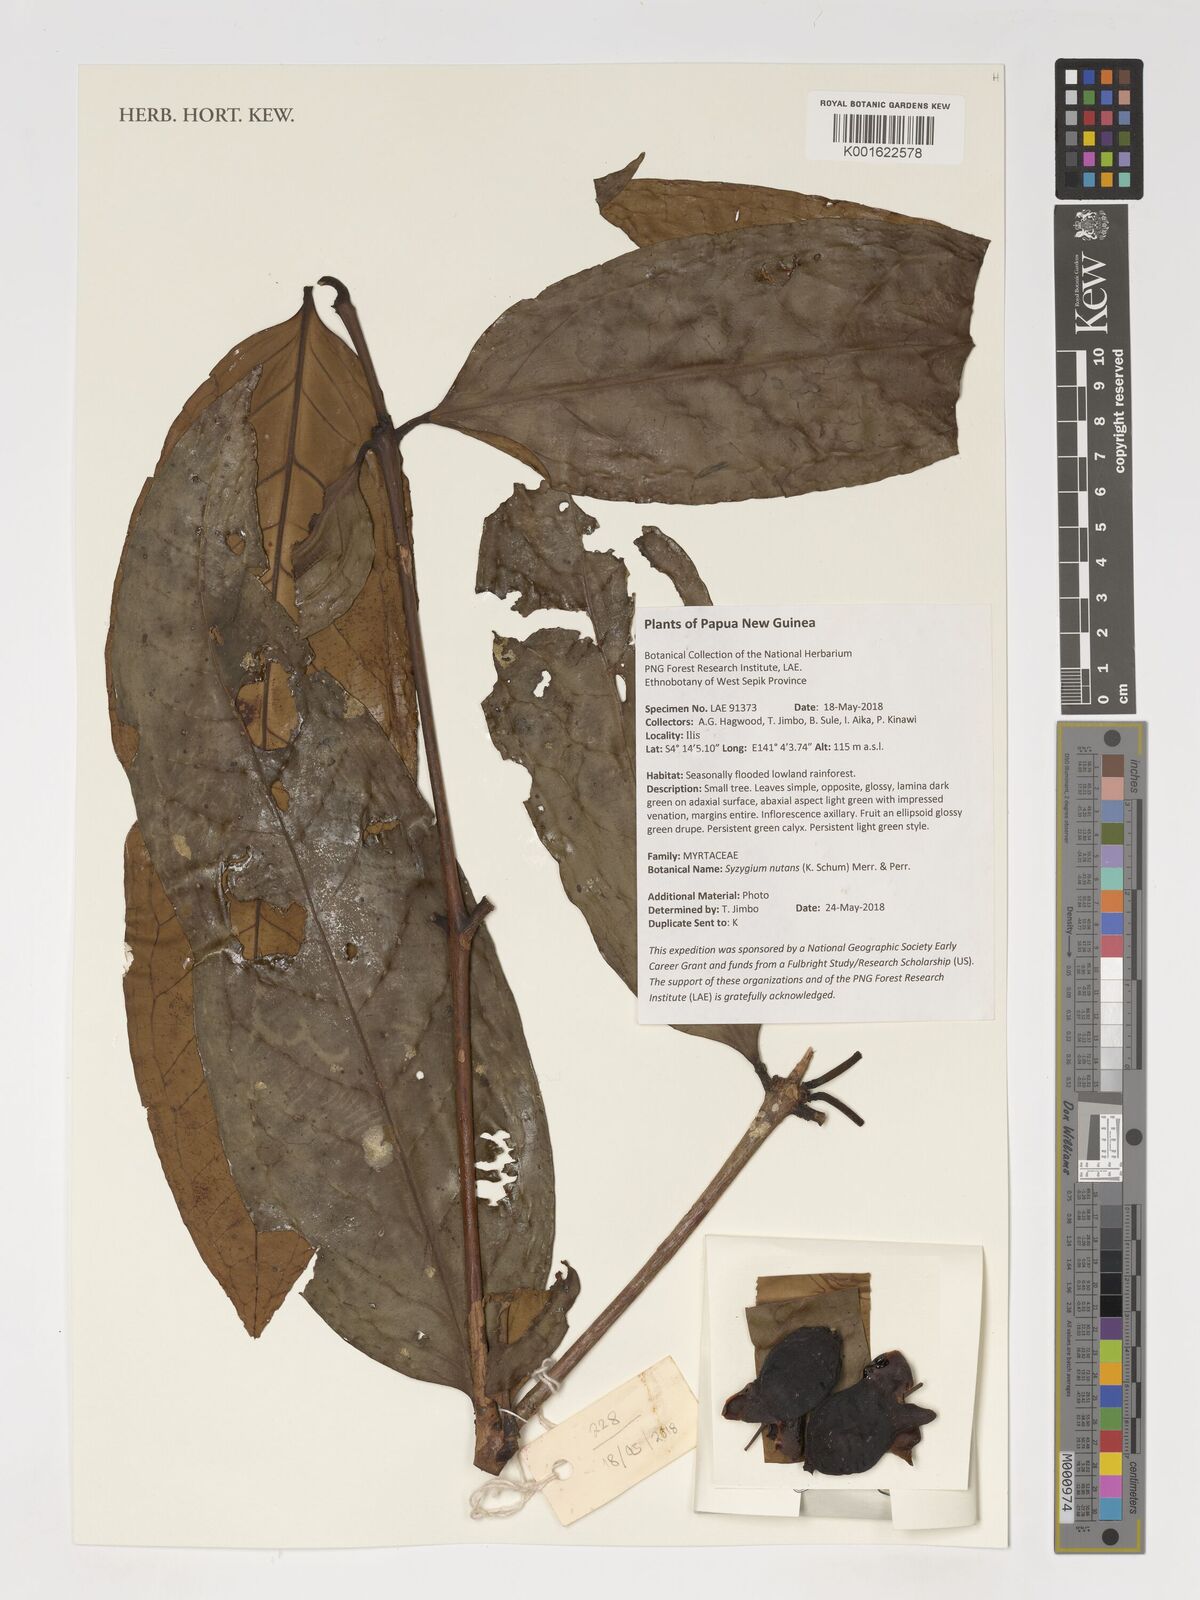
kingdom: Plantae
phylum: Tracheophyta
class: Magnoliopsida
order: Myrtales
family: Myrtaceae
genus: Syzygium
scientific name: Syzygium nutans
